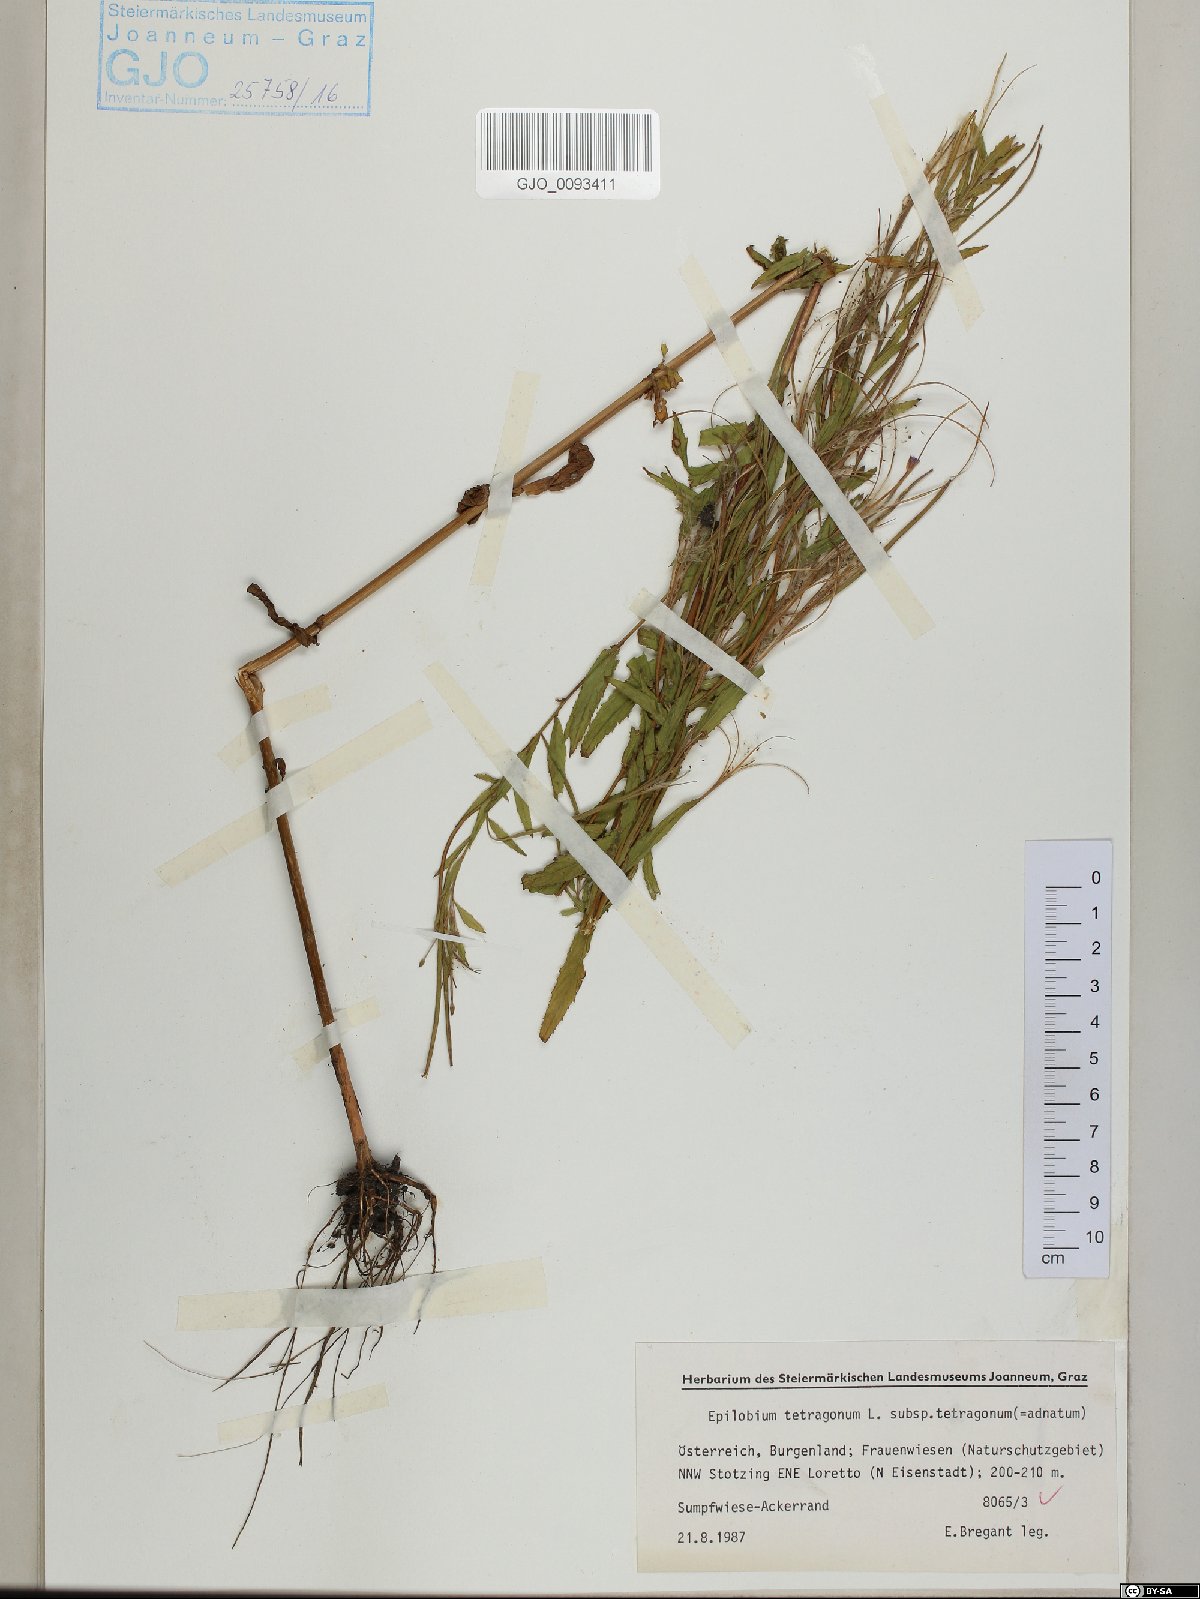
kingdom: Plantae
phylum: Tracheophyta
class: Magnoliopsida
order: Myrtales
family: Onagraceae
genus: Epilobium
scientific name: Epilobium tetragonum
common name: Square-stemmed willowherb
